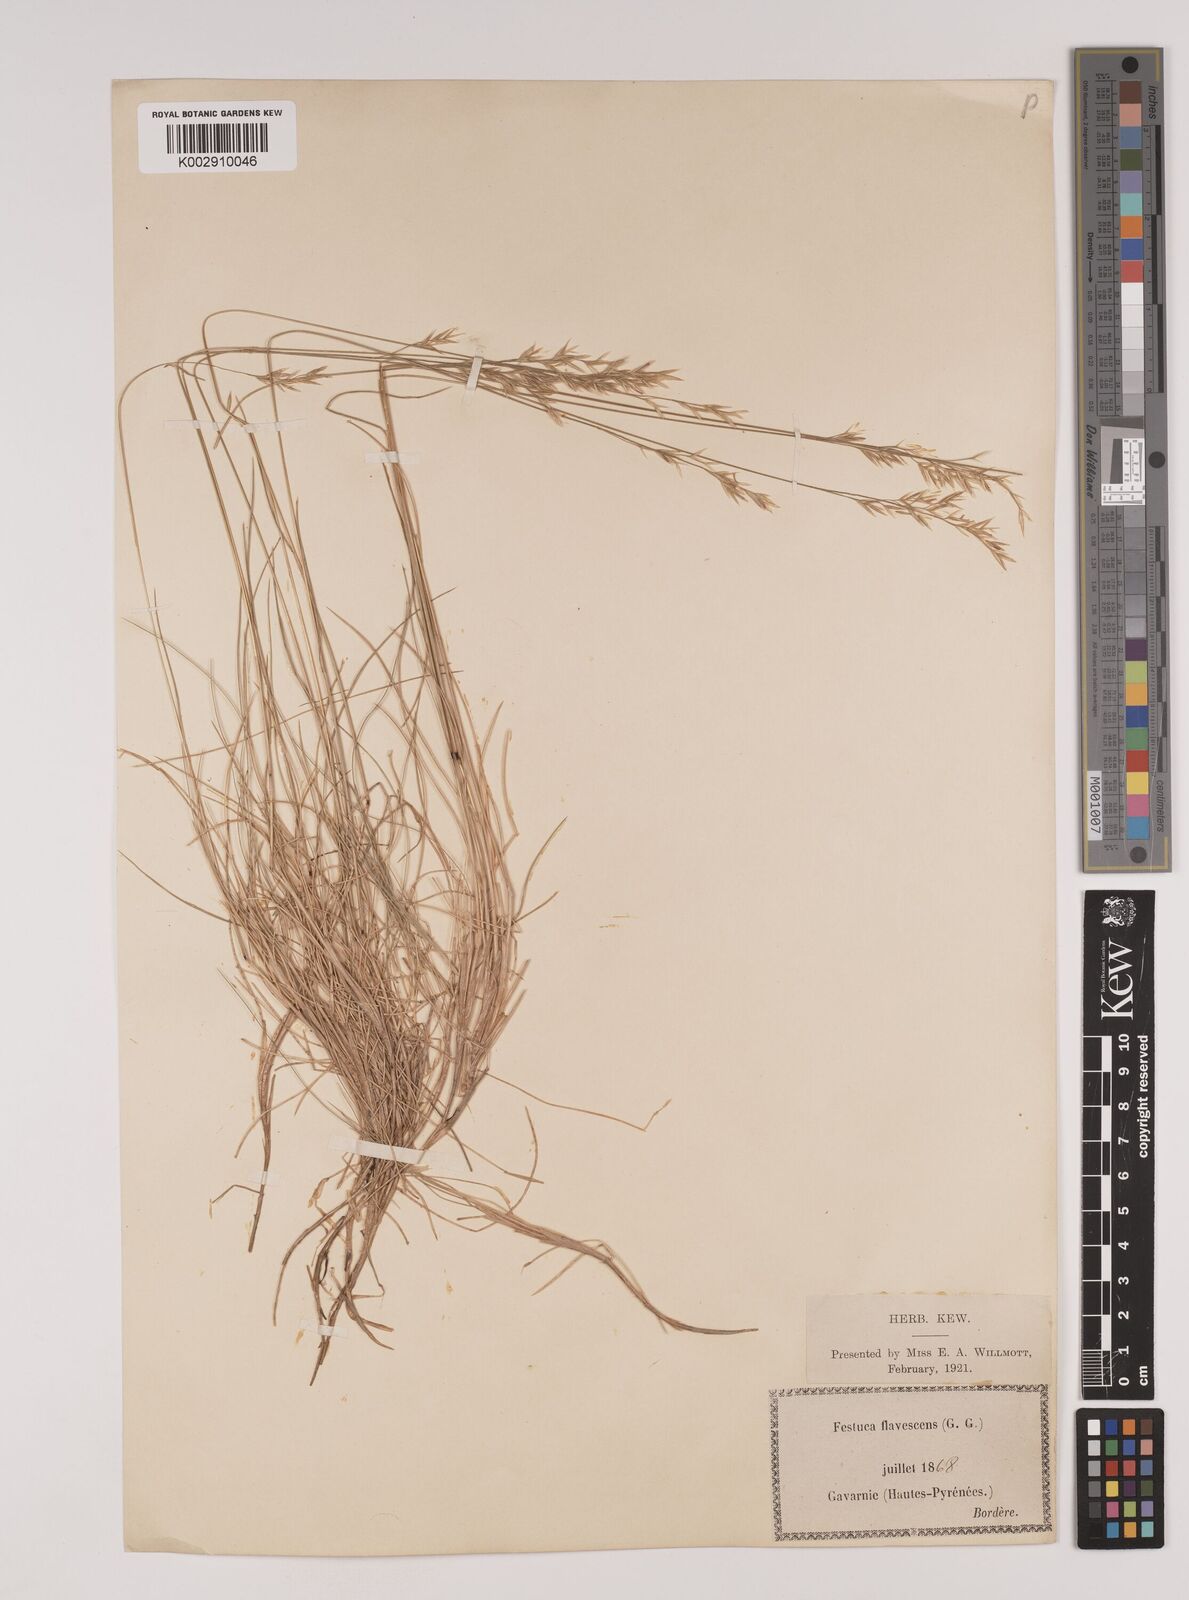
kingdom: Plantae
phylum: Tracheophyta
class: Liliopsida
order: Poales
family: Poaceae
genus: Festuca
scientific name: Festuca gautieri
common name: Spiky fescue
